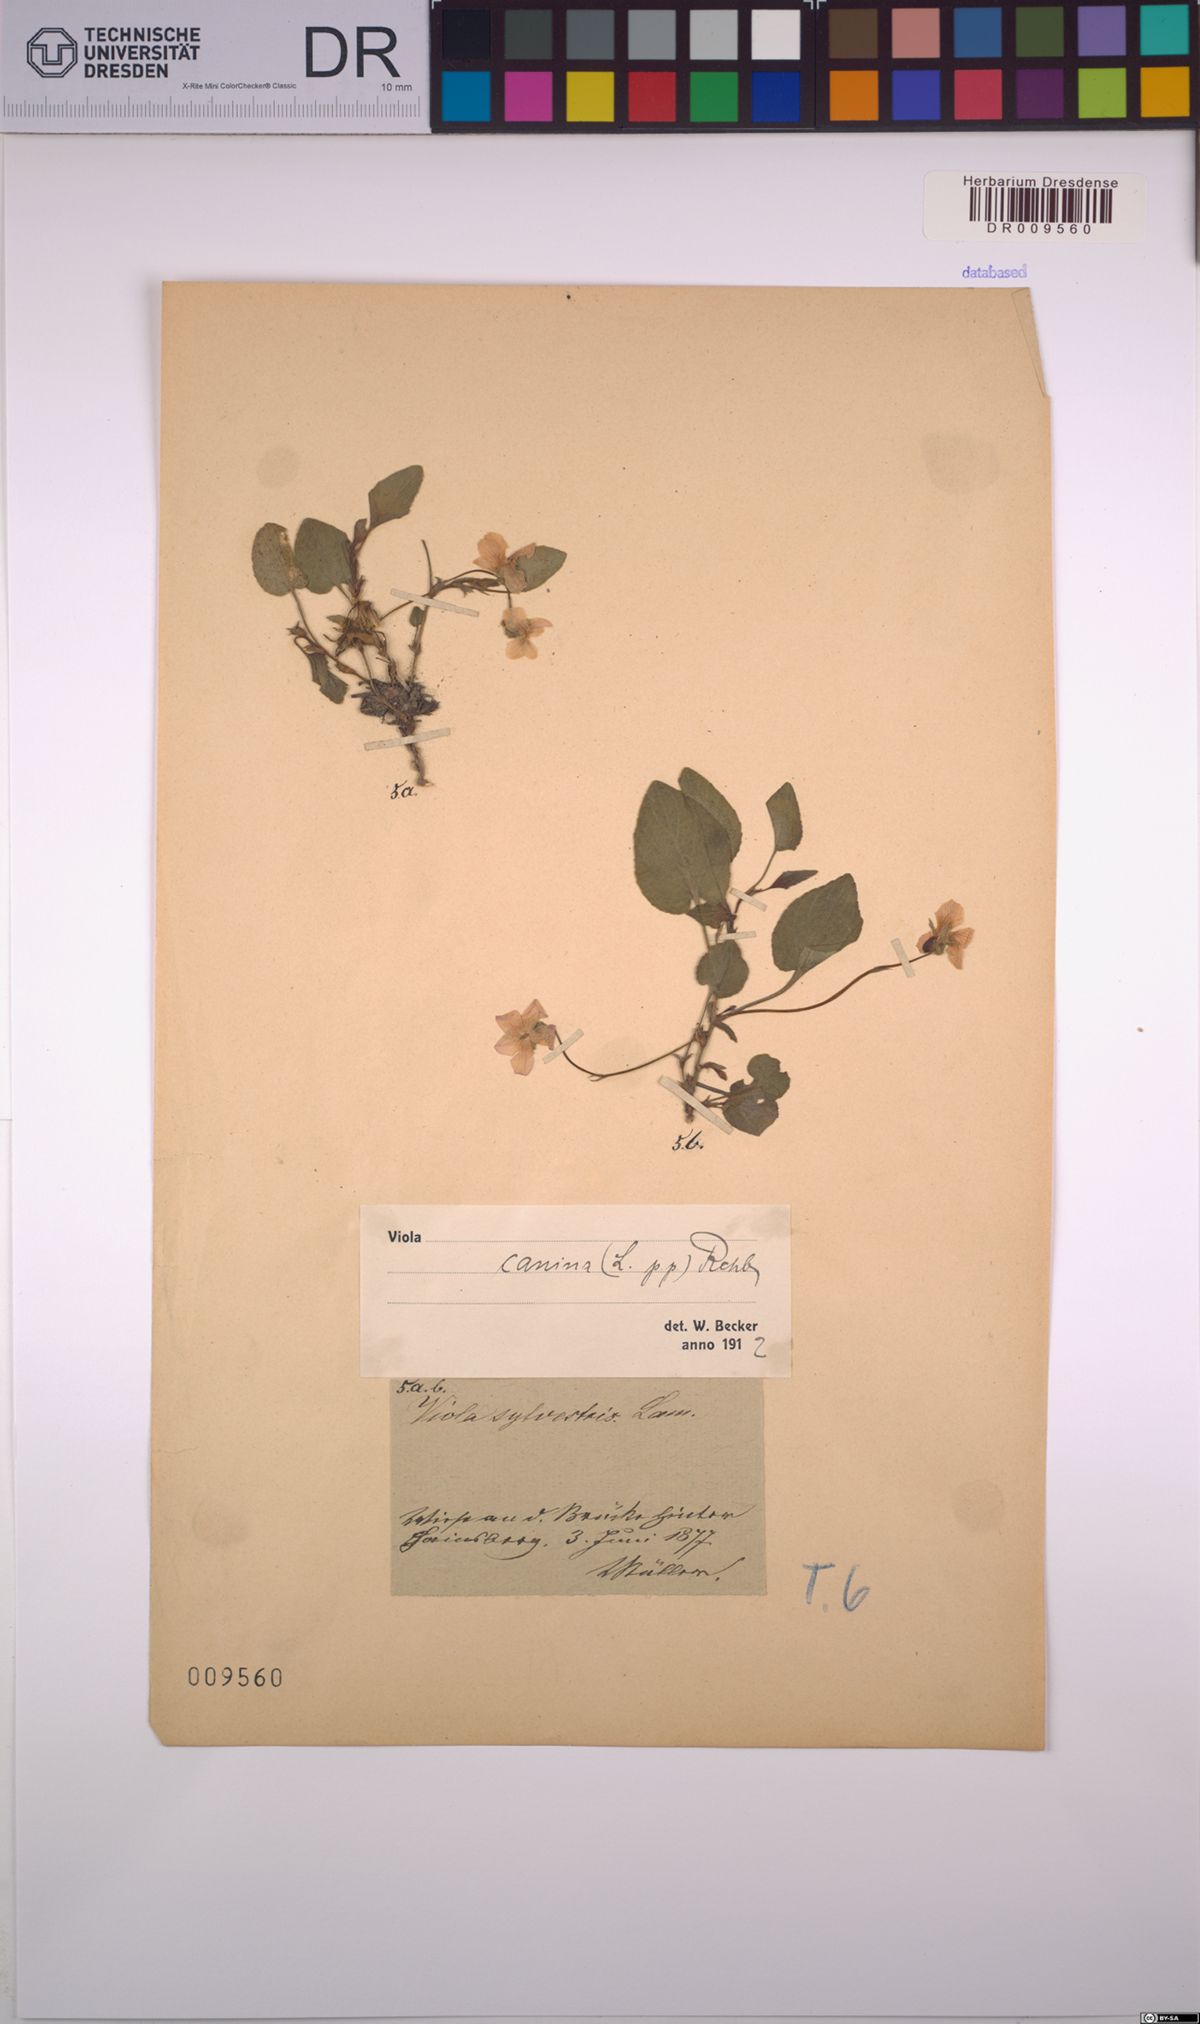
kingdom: Plantae
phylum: Tracheophyta
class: Magnoliopsida
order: Malpighiales
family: Violaceae
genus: Viola
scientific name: Viola canina
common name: Heath dog-violet
